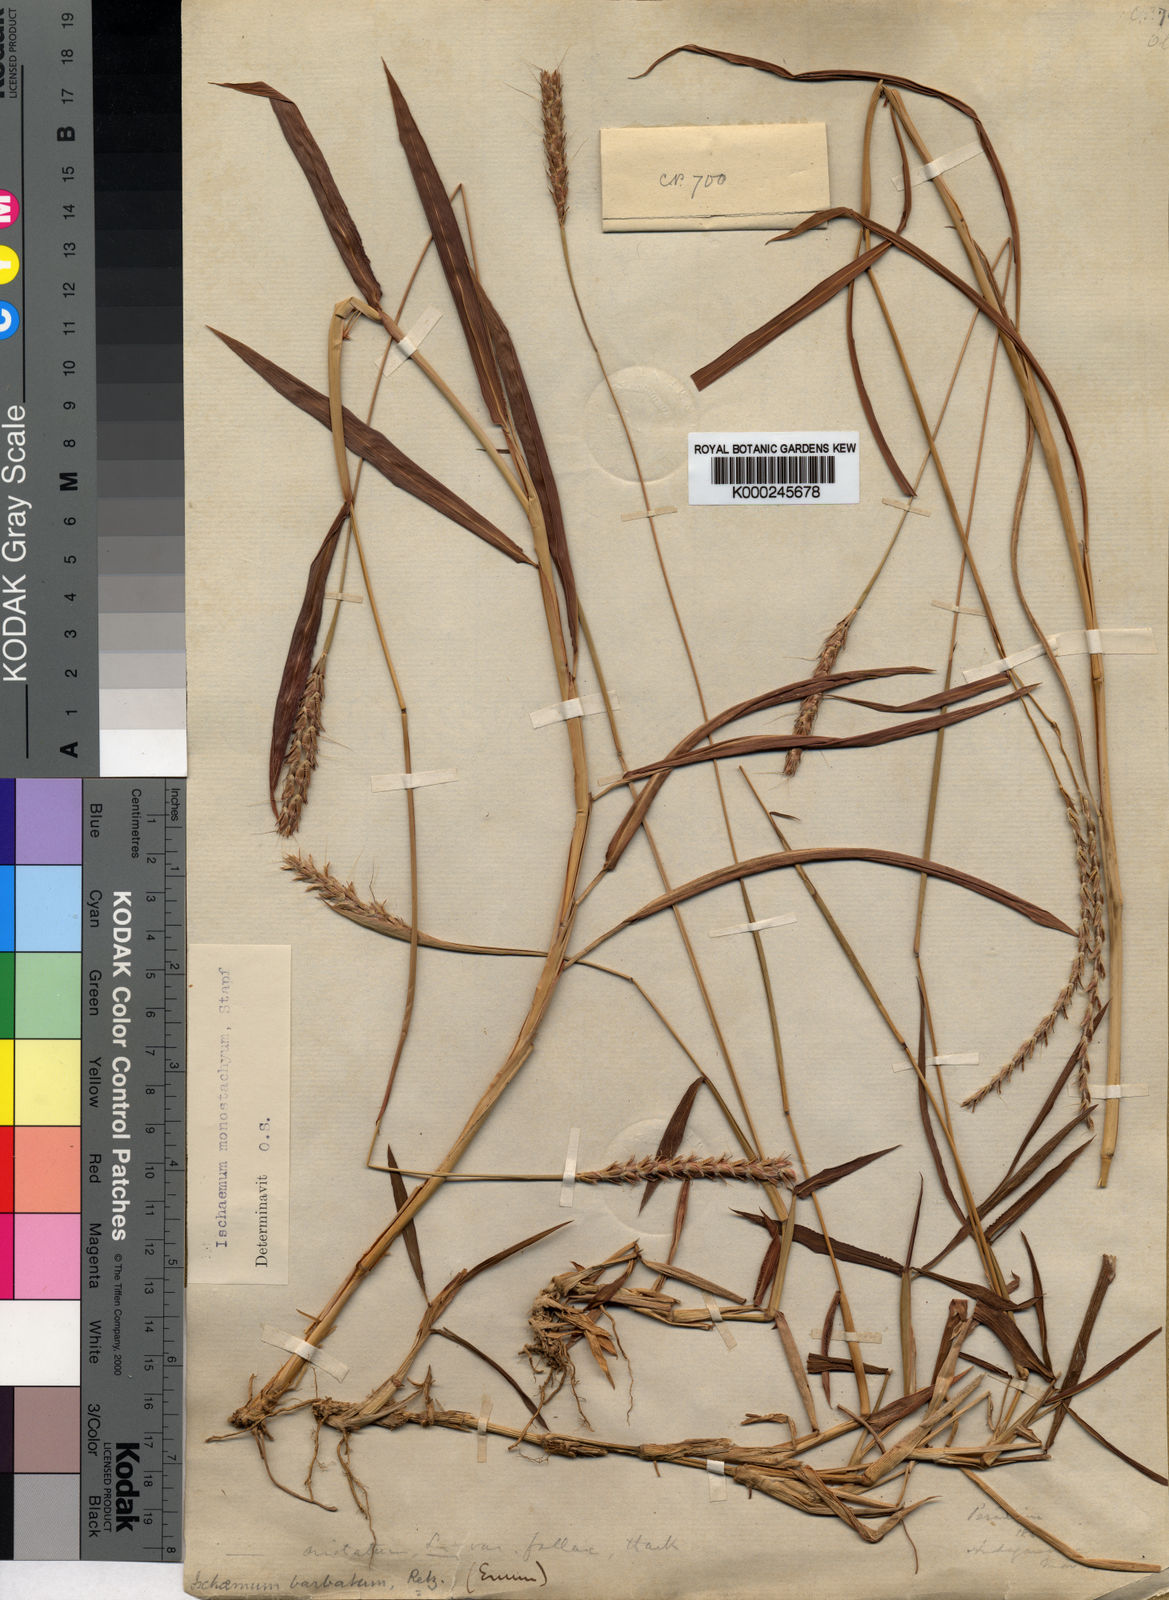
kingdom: Plantae
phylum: Tracheophyta
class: Liliopsida
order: Poales
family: Poaceae
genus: Ischaemum
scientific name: Ischaemum barbatum
